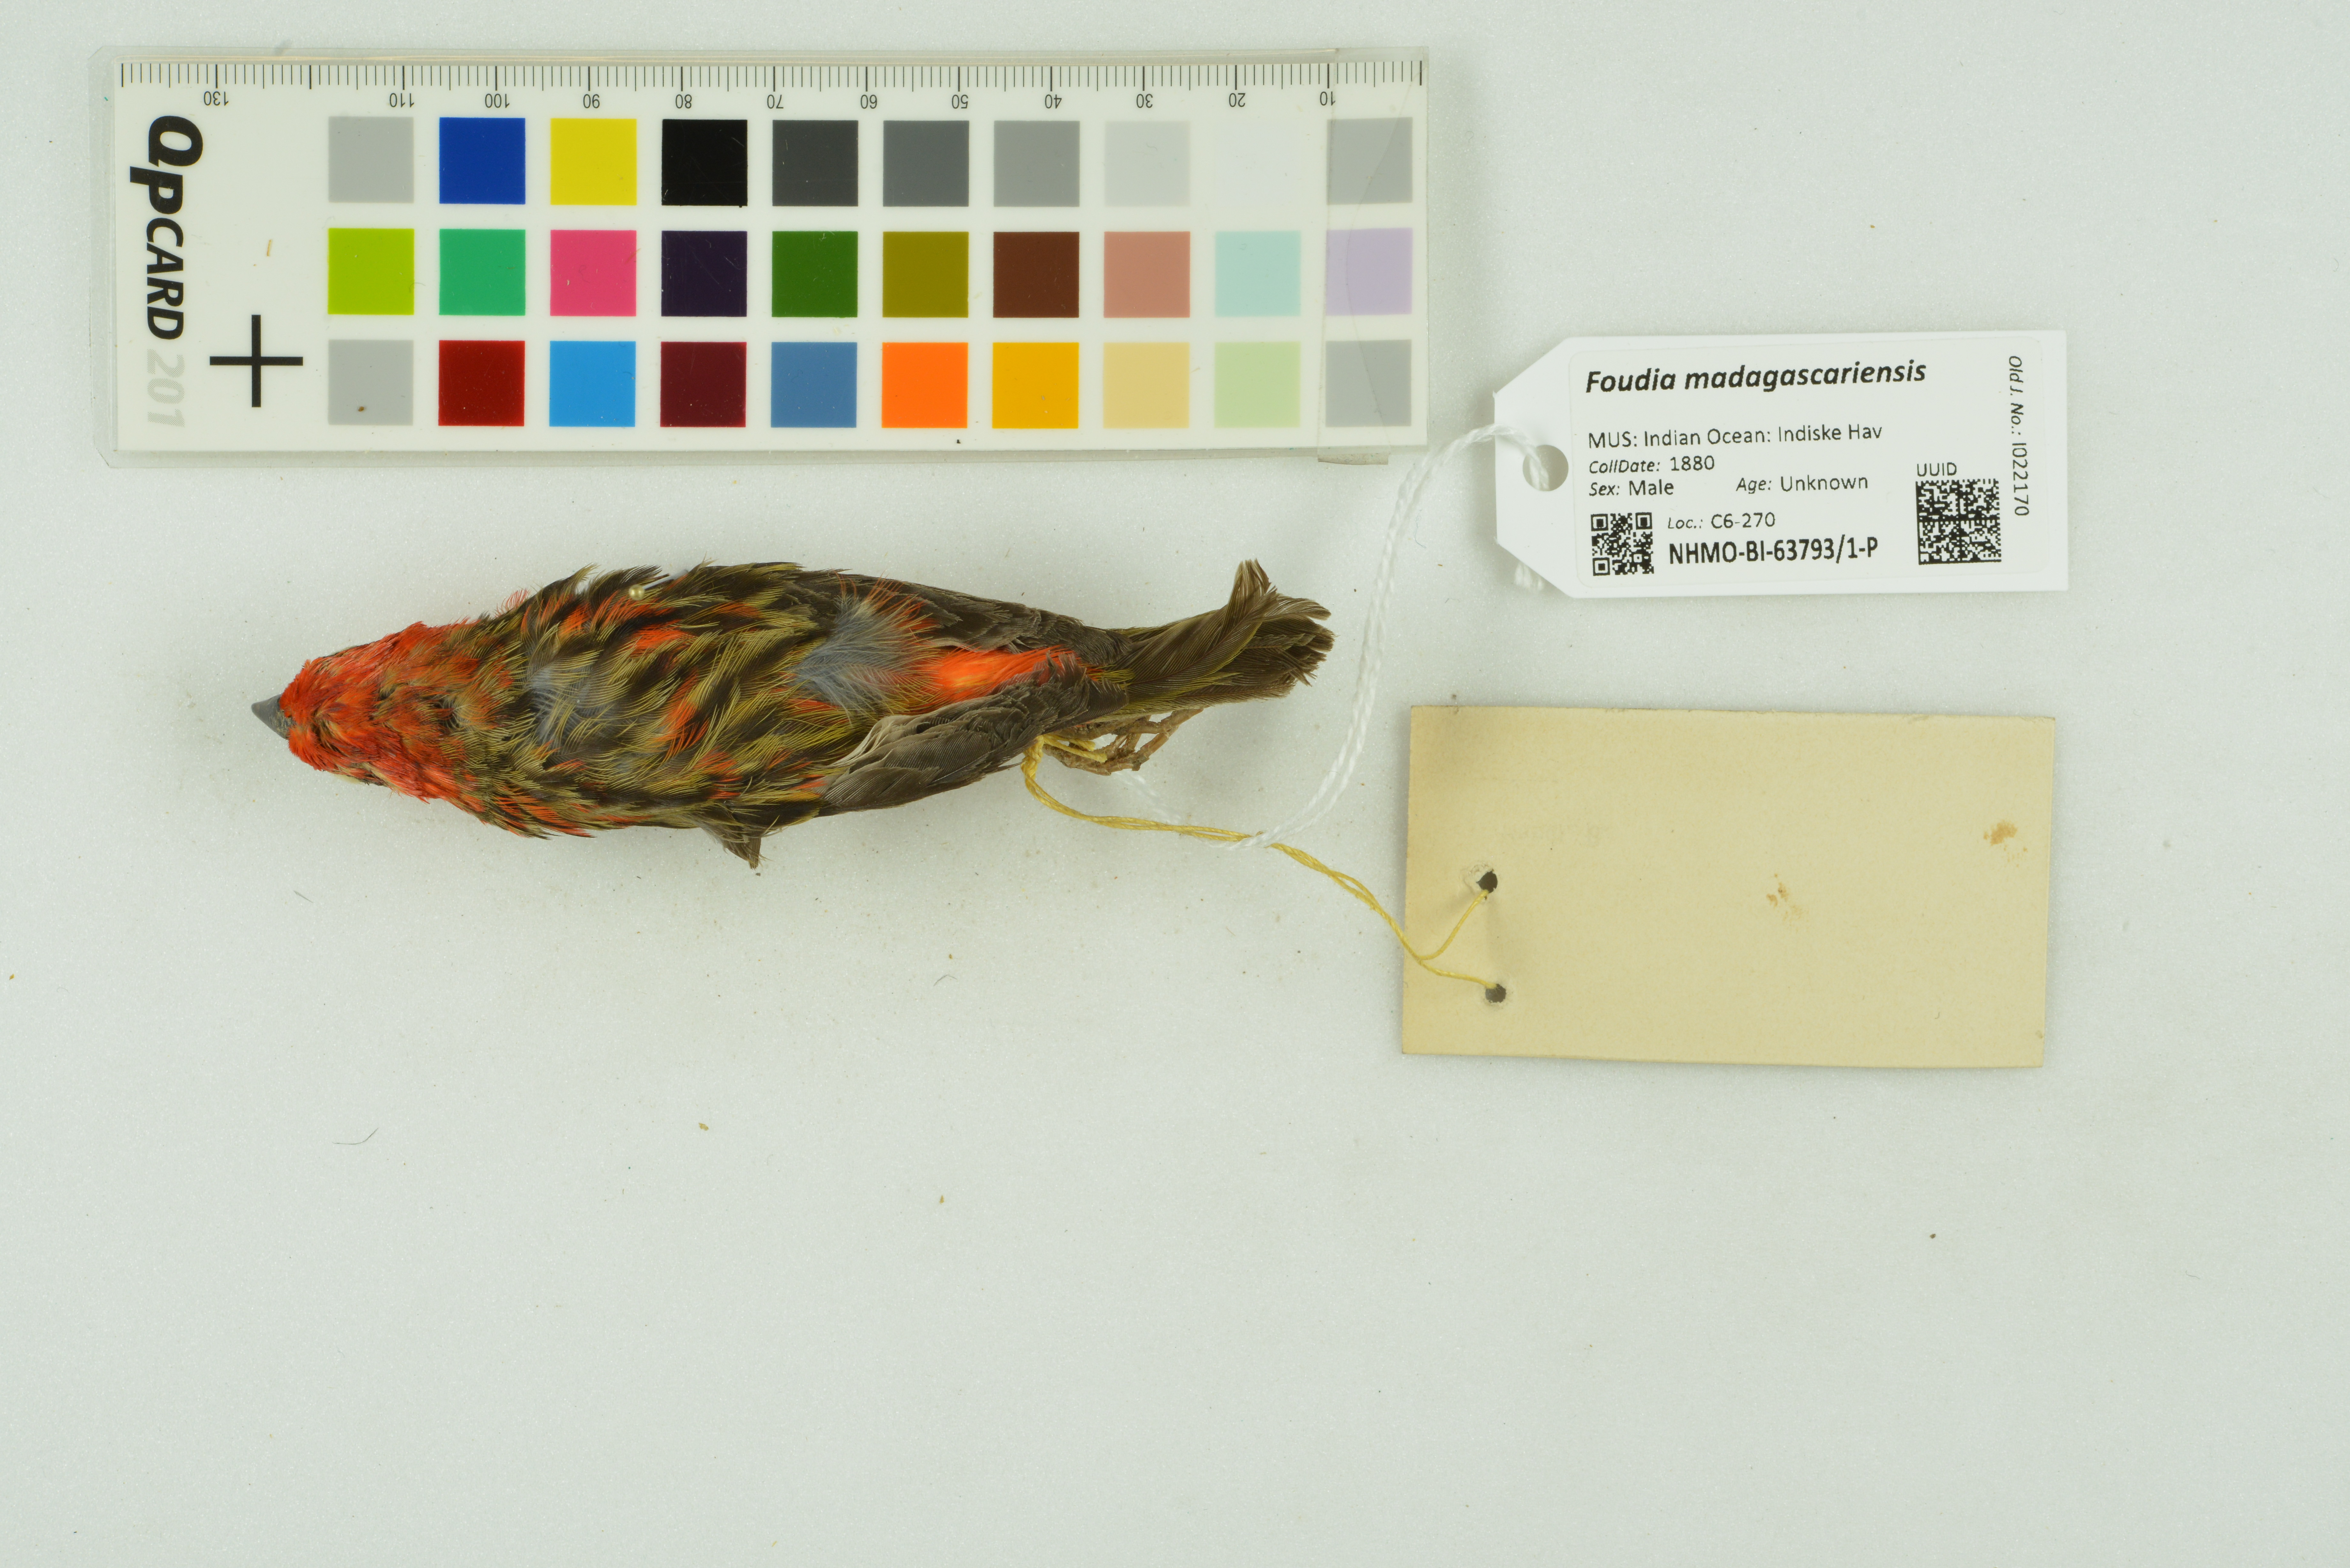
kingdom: Animalia
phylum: Chordata
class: Aves
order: Passeriformes
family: Ploceidae
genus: Foudia
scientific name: Foudia madagascariensis
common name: Red fody
